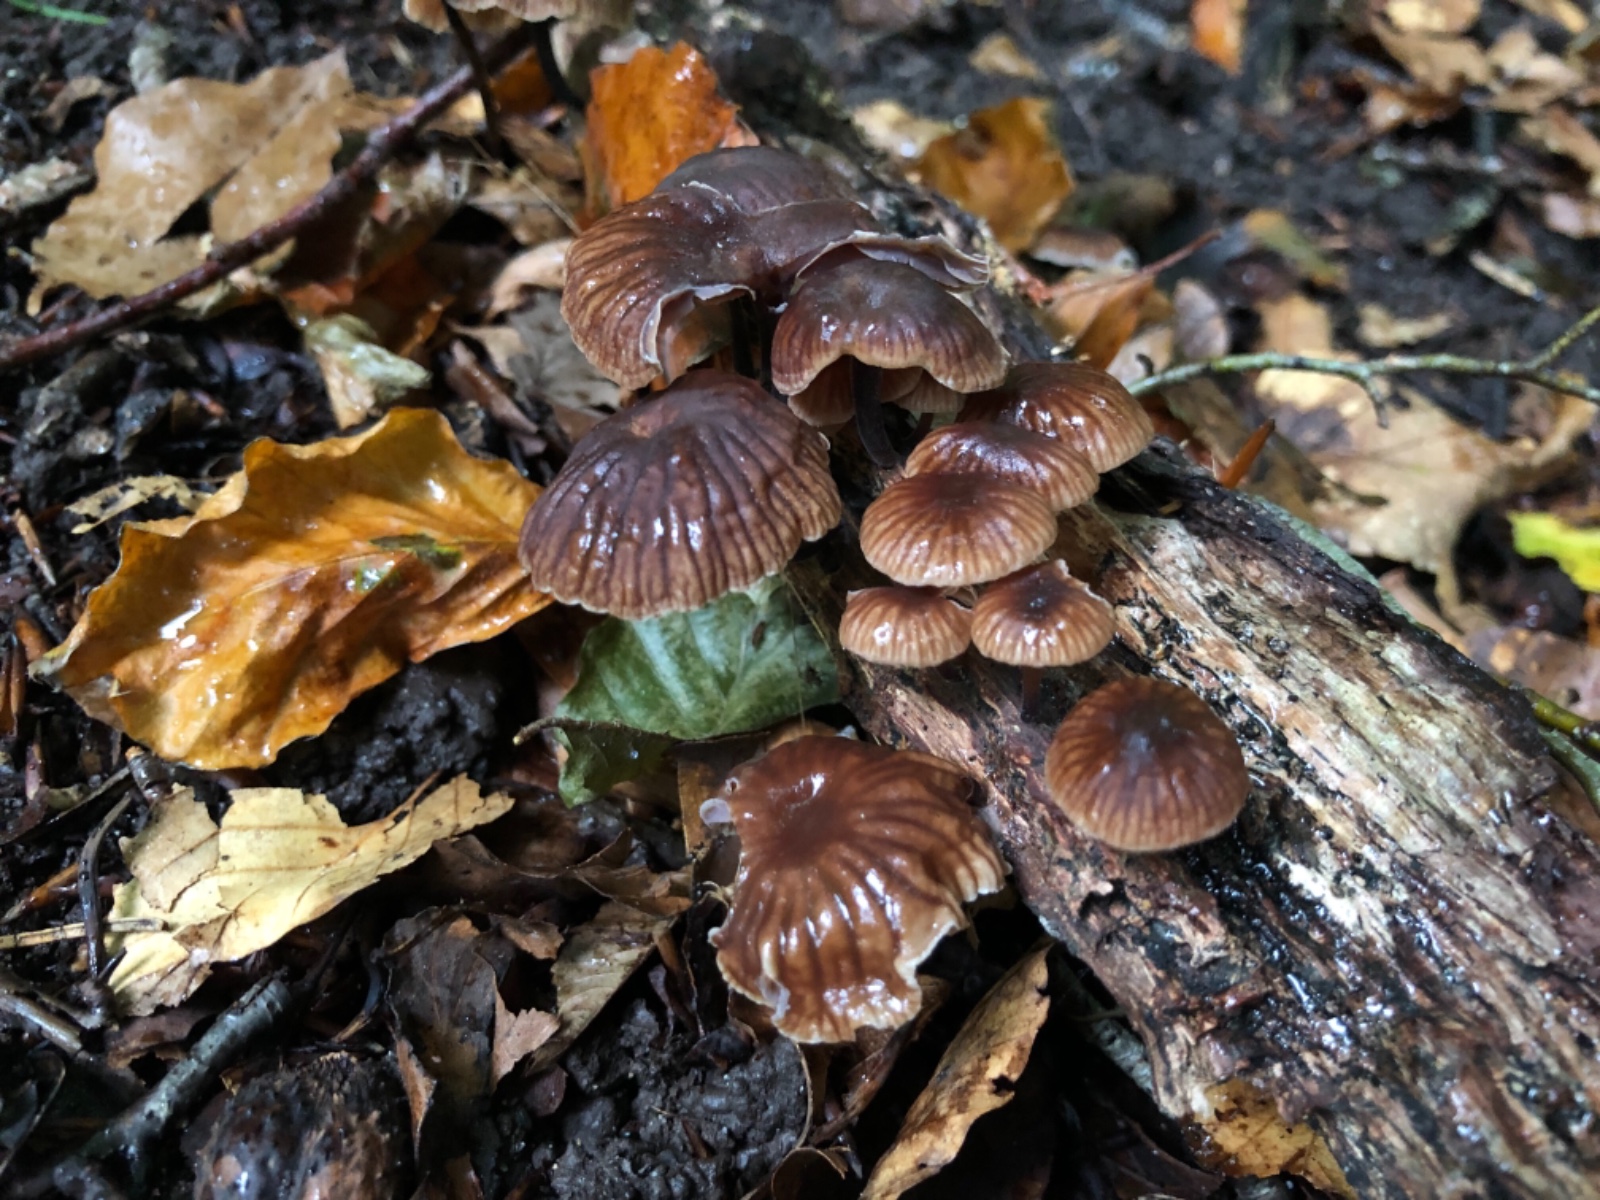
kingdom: Fungi
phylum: Basidiomycota
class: Agaricomycetes
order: Agaricales
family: Omphalotaceae
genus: Gymnopus
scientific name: Gymnopus foetidus
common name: stinkende fladhat
